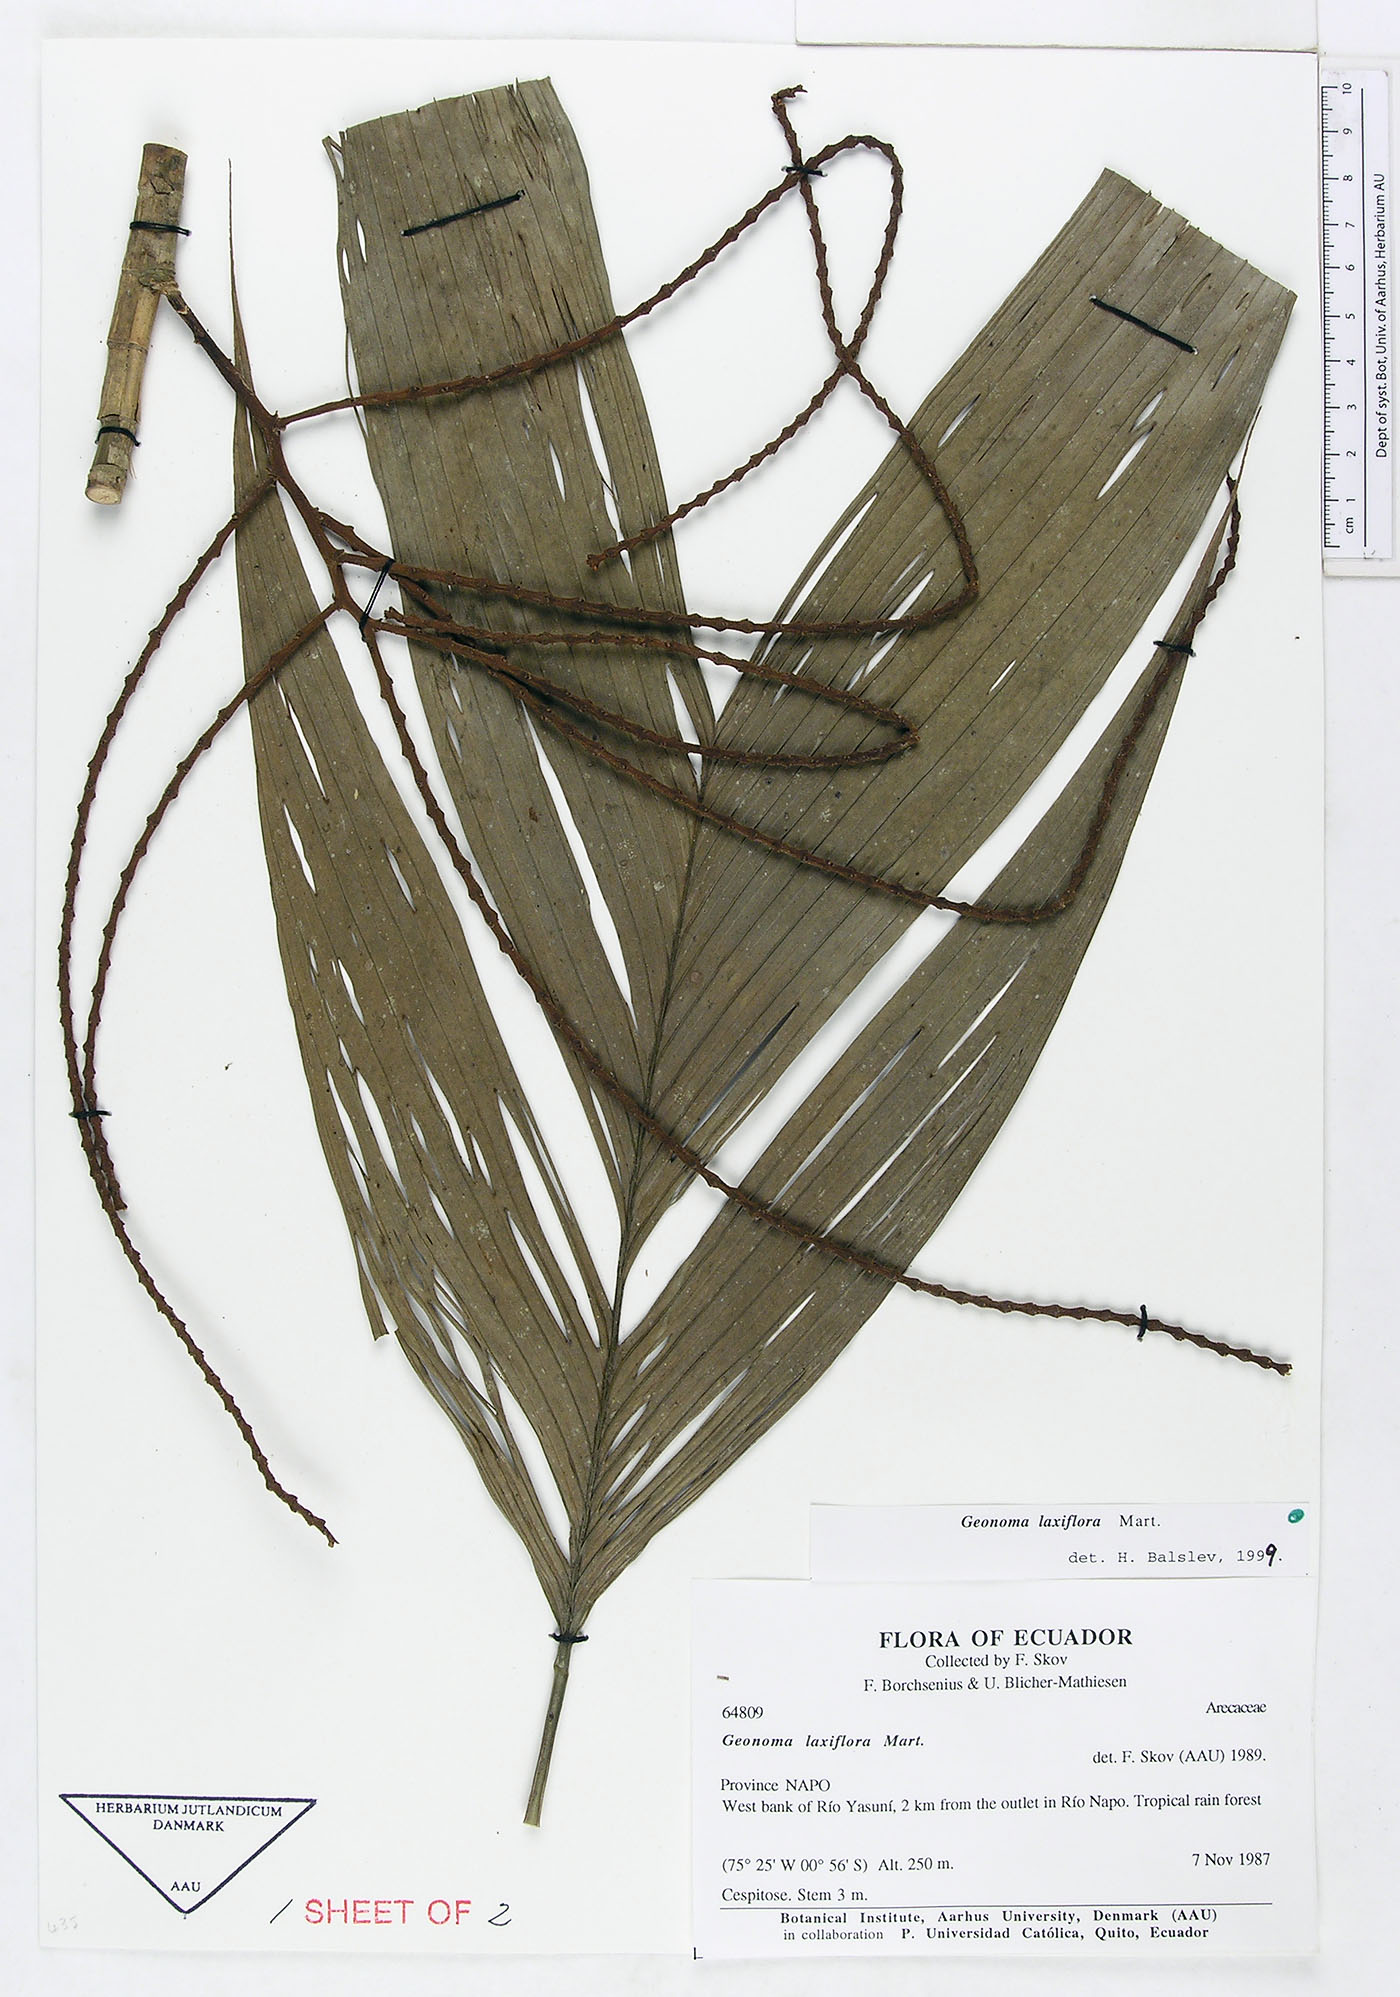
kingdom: Plantae
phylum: Tracheophyta
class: Liliopsida
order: Arecales
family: Arecaceae
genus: Geonoma
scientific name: Geonoma laxiflora
